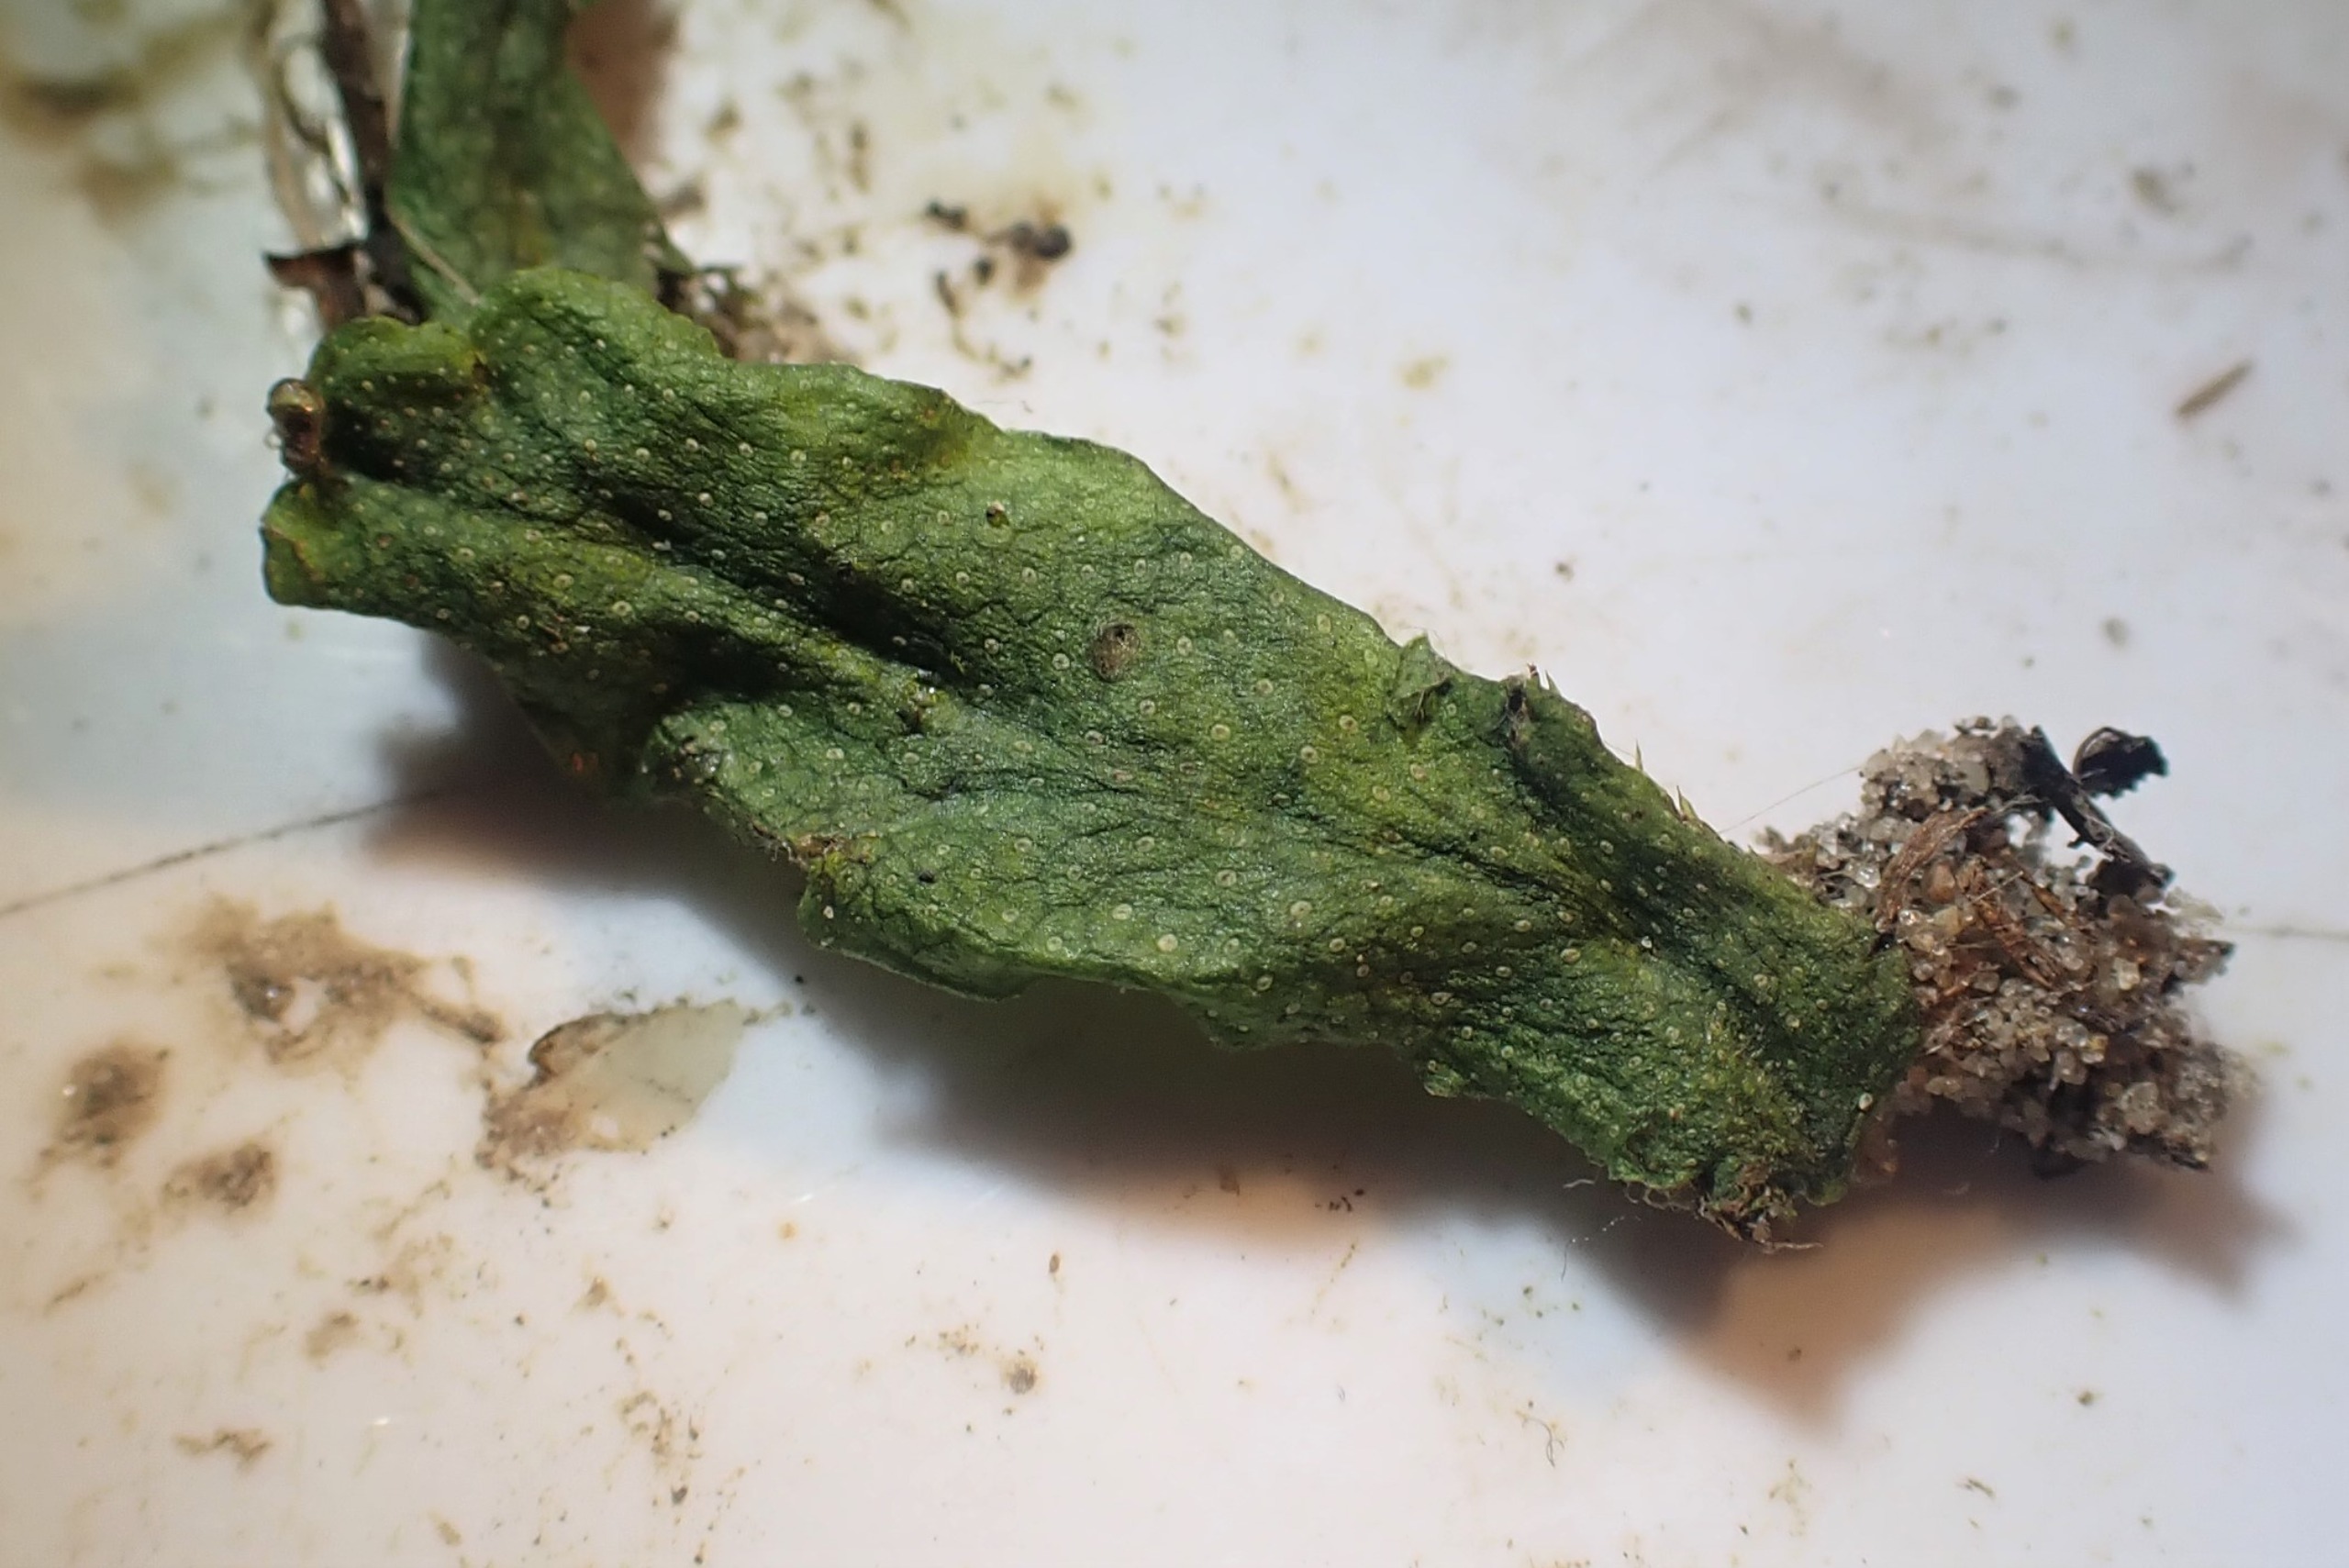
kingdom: Plantae
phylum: Marchantiophyta
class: Marchantiopsida
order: Marchantiales
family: Conocephalaceae
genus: Conocephalum
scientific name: Conocephalum salebrosum
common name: Ru krokodillemos
